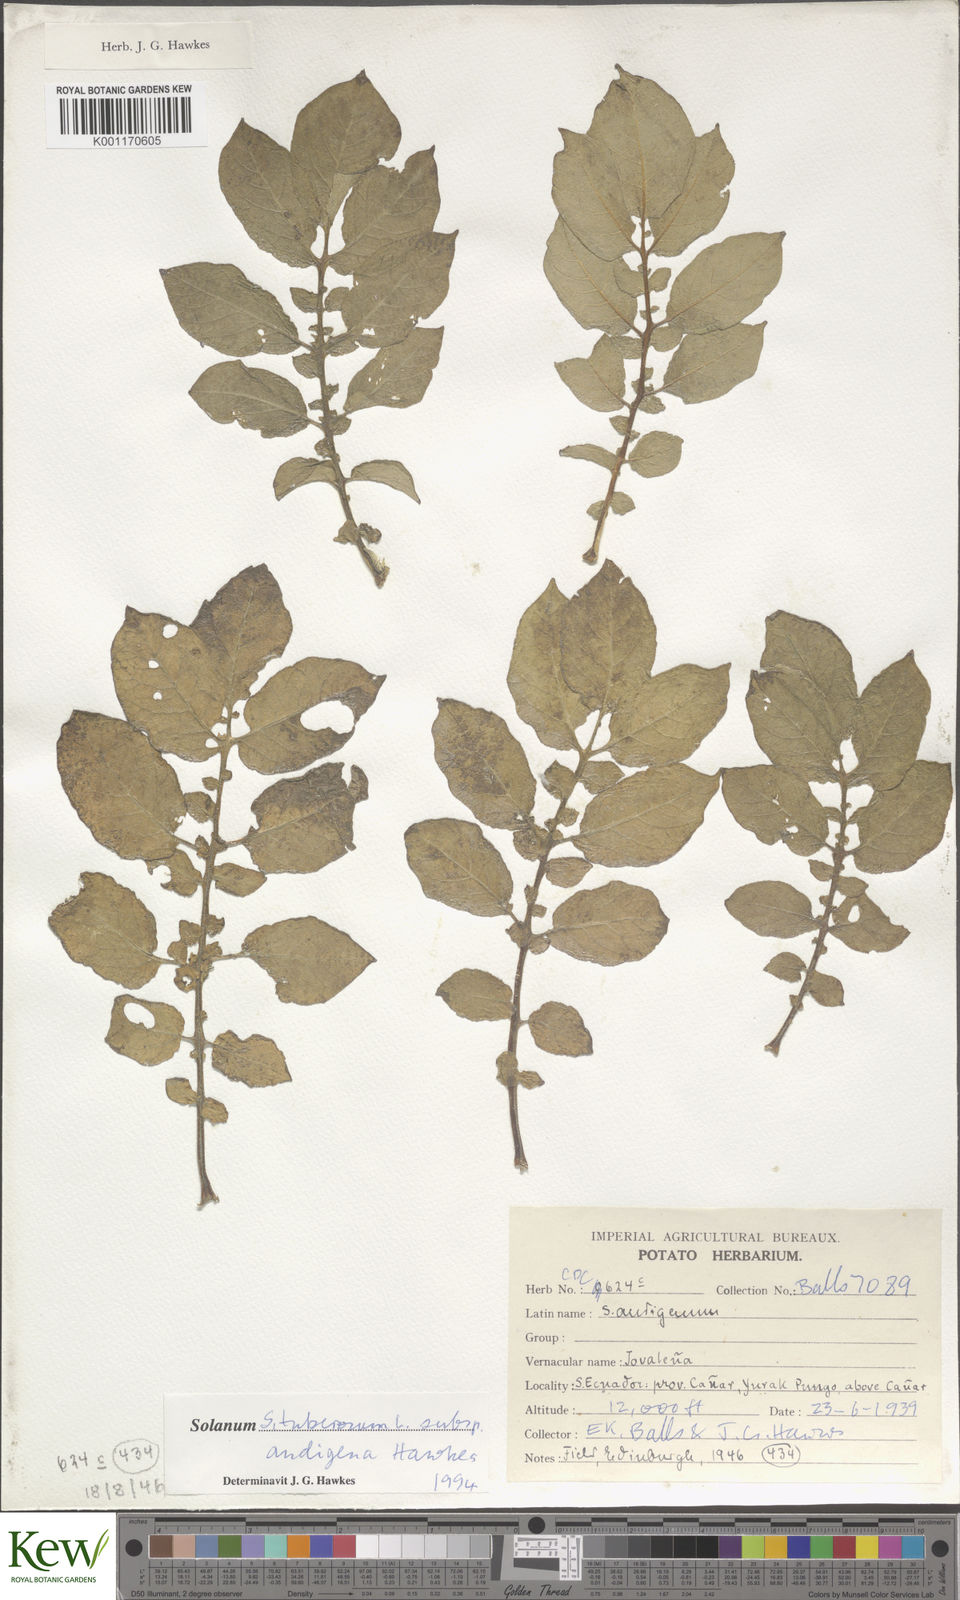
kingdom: Plantae
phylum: Tracheophyta
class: Magnoliopsida
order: Solanales
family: Solanaceae
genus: Solanum
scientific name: Solanum tuberosum
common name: Potato
